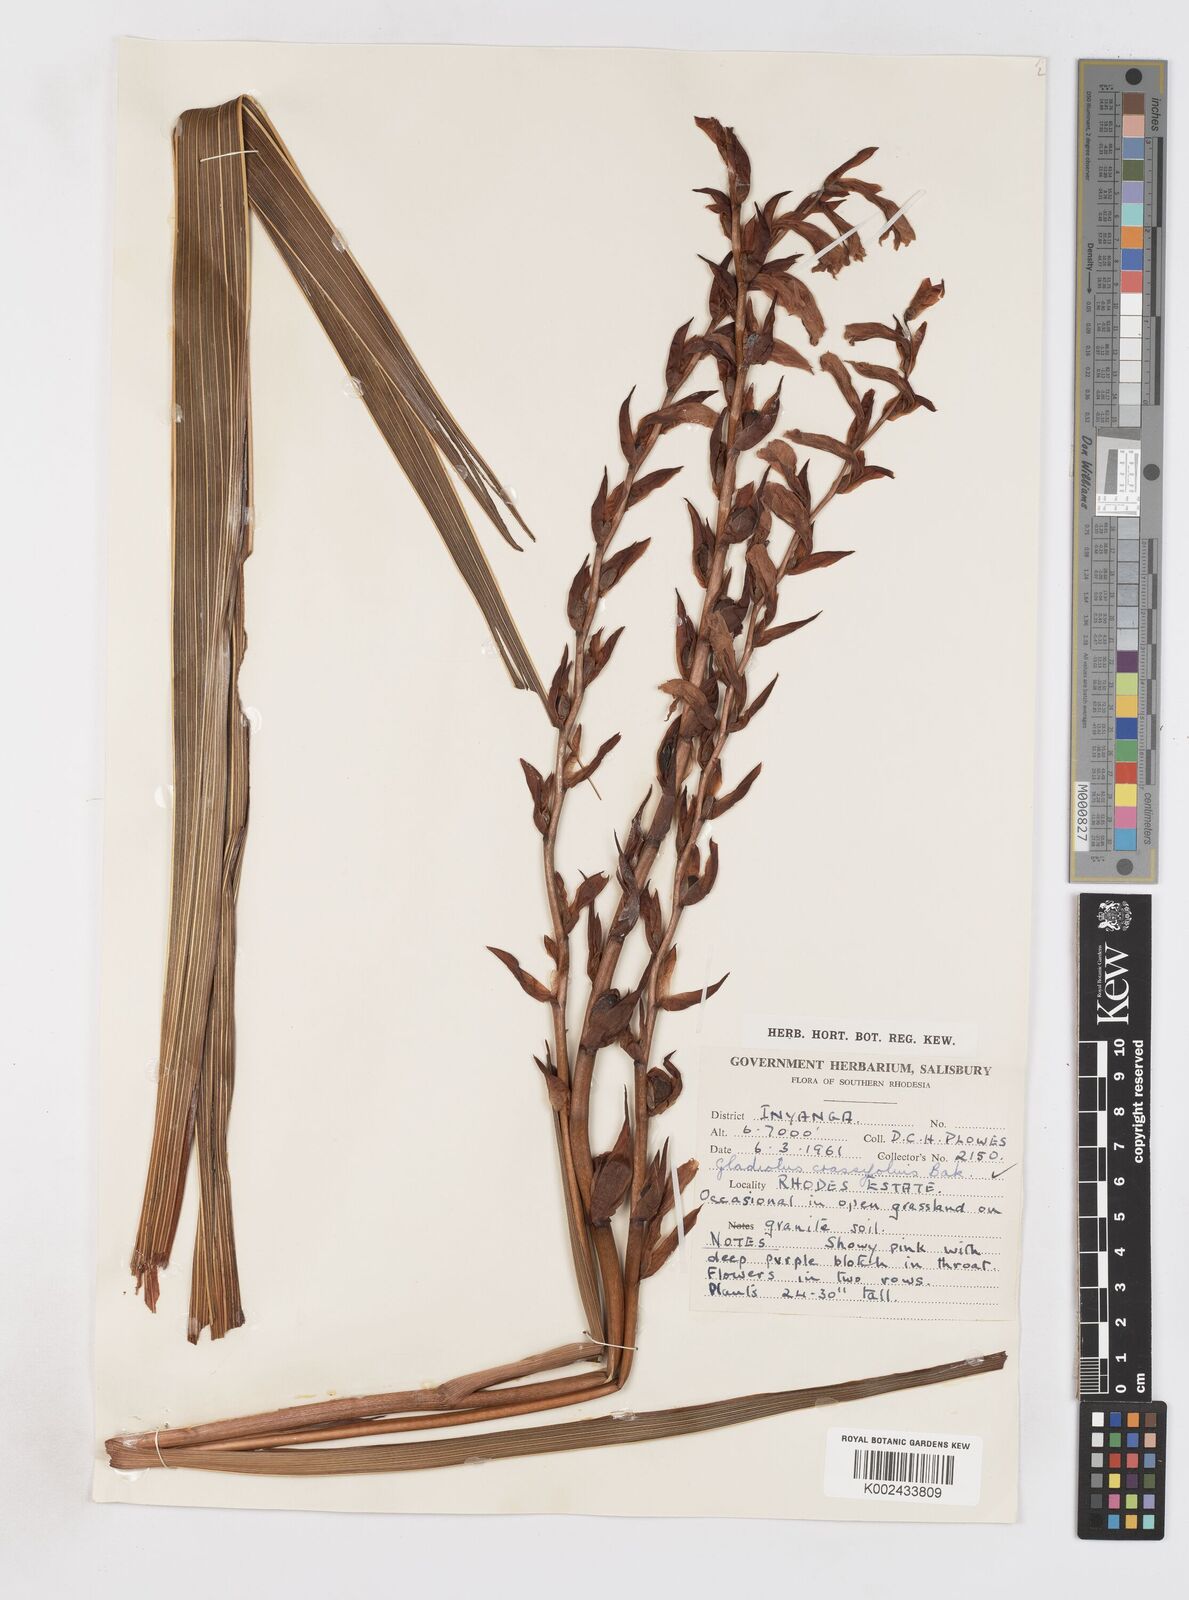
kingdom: Plantae
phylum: Tracheophyta
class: Liliopsida
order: Asparagales
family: Iridaceae
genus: Gladiolus
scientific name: Gladiolus crassifolius
